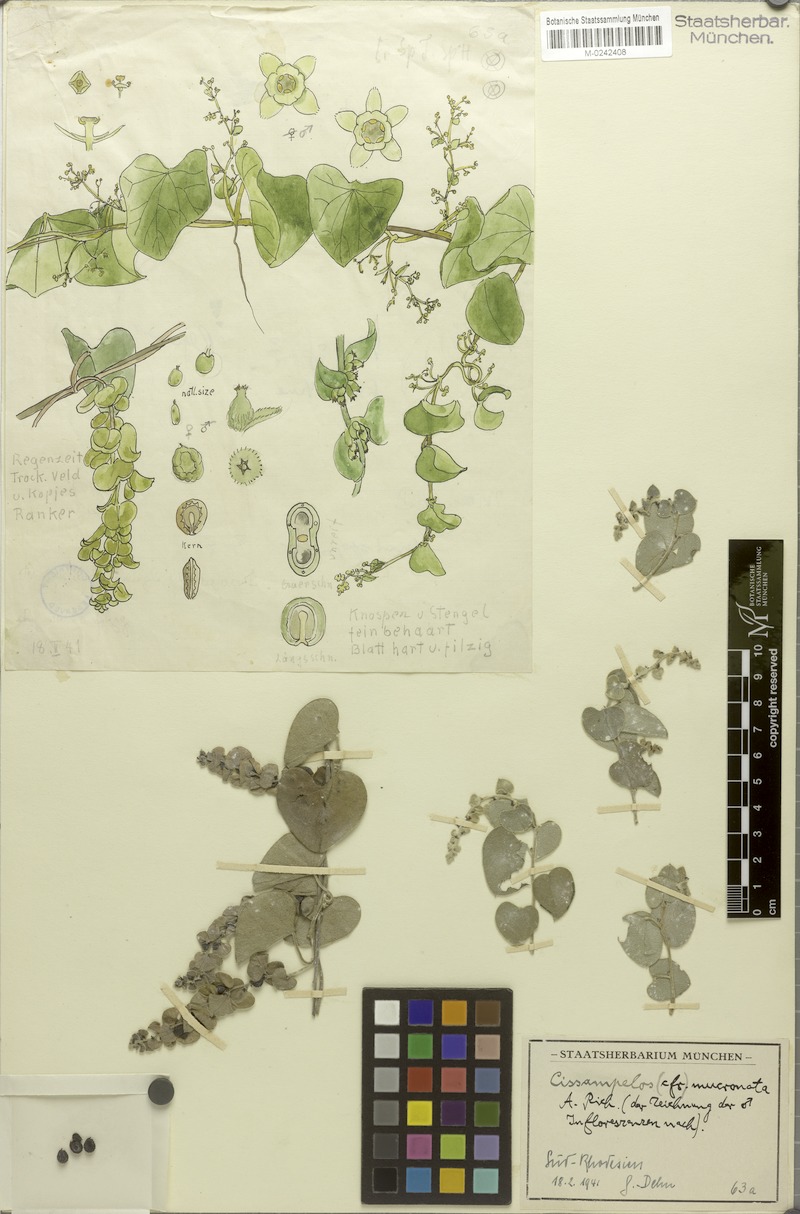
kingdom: Plantae
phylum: Tracheophyta
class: Magnoliopsida
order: Ranunculales
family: Menispermaceae
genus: Cissampelos
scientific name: Cissampelos mucronata
